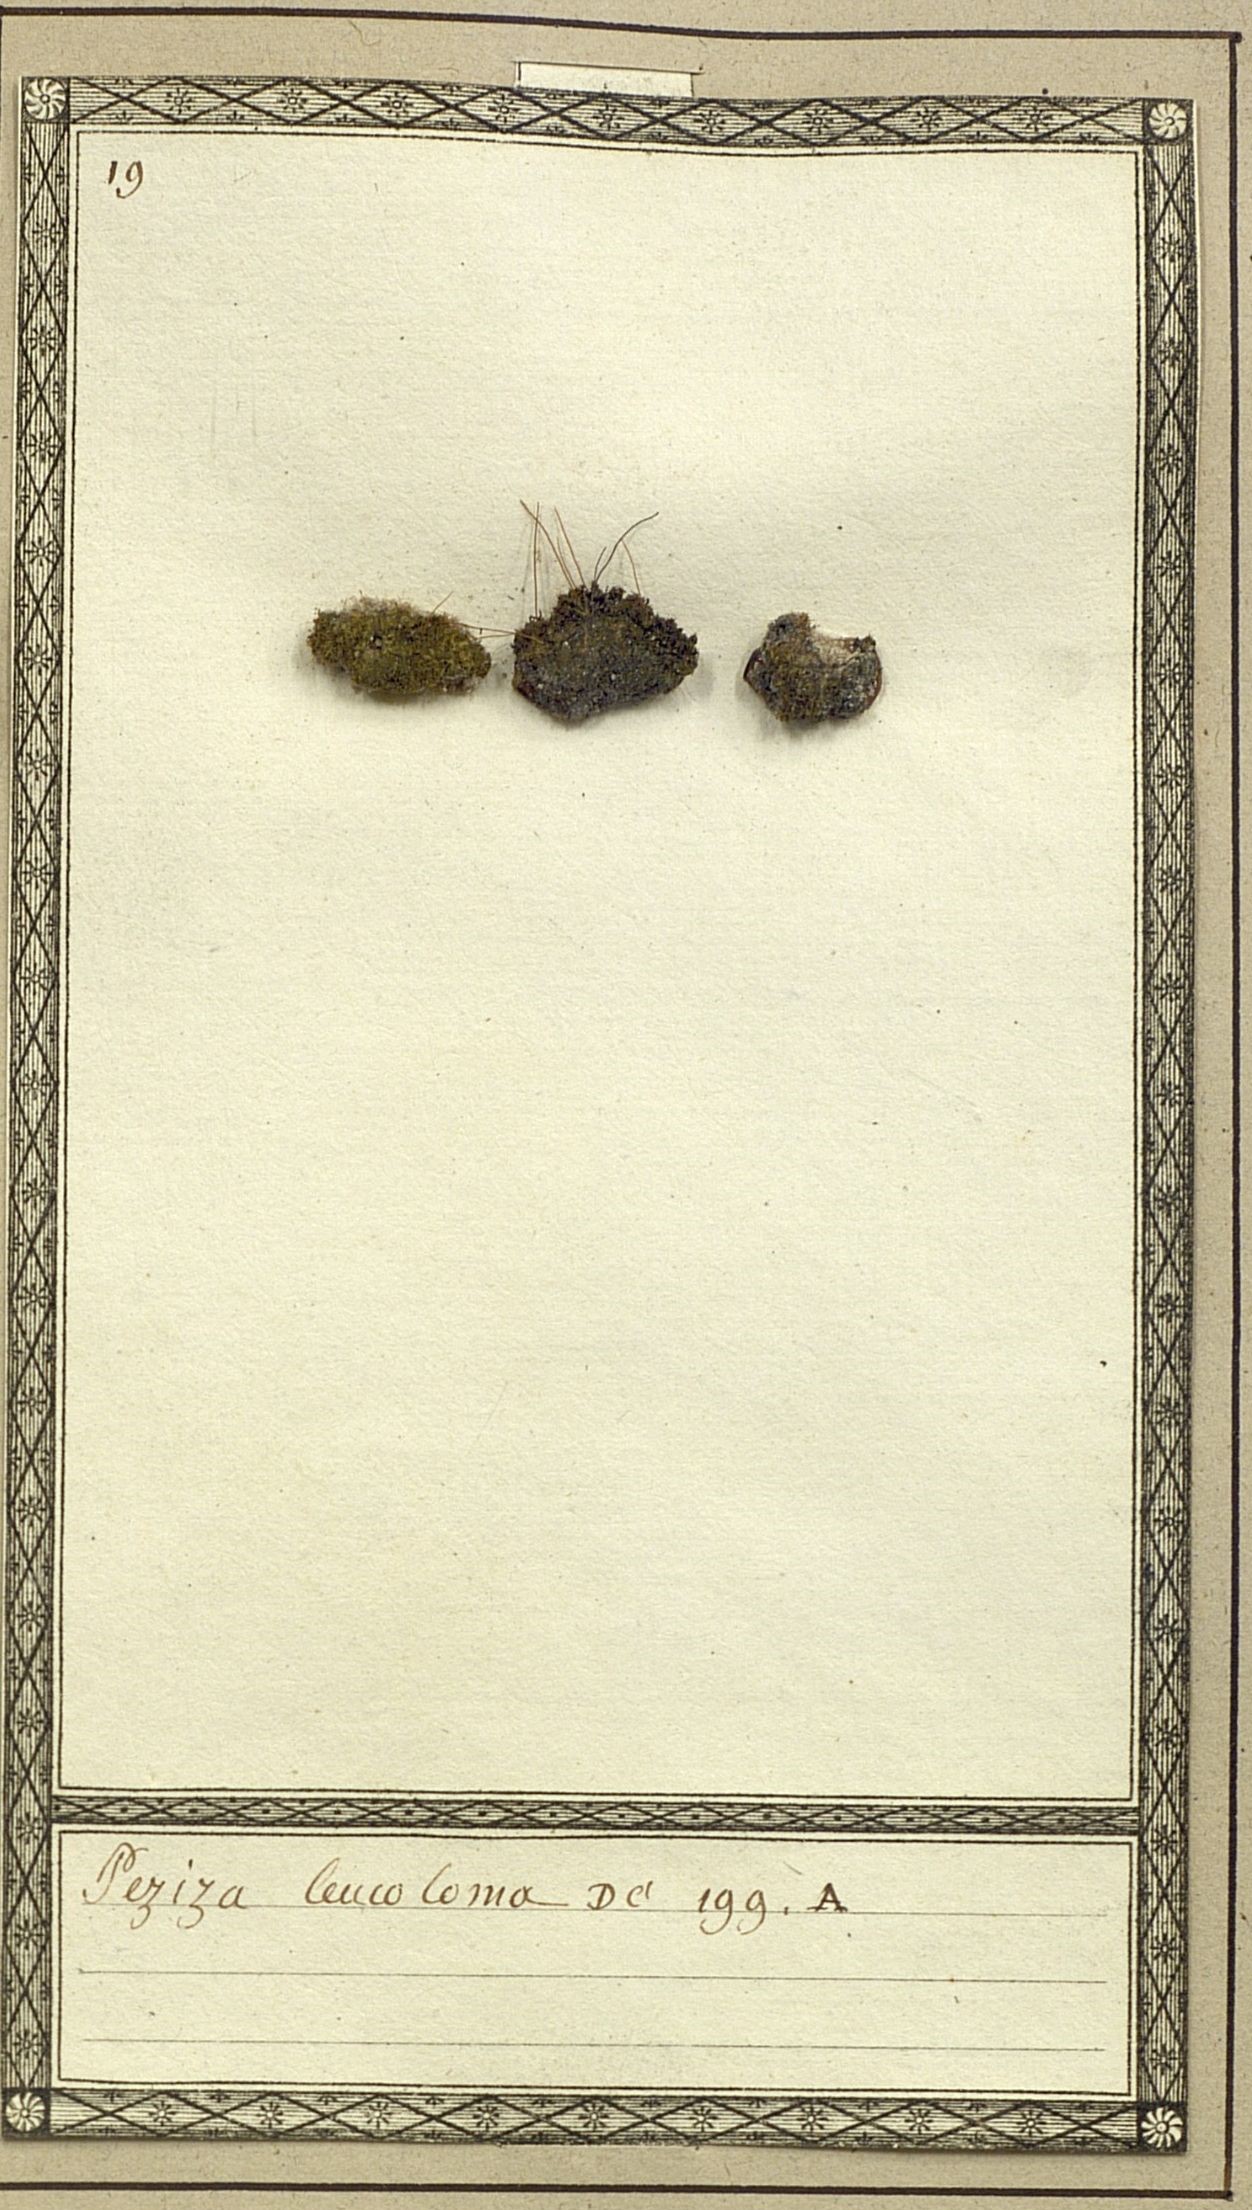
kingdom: Fungi
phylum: Ascomycota
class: Pezizomycetes
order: Pezizales
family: Pyronemataceae
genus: Octospora
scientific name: Octospora leucoloma
